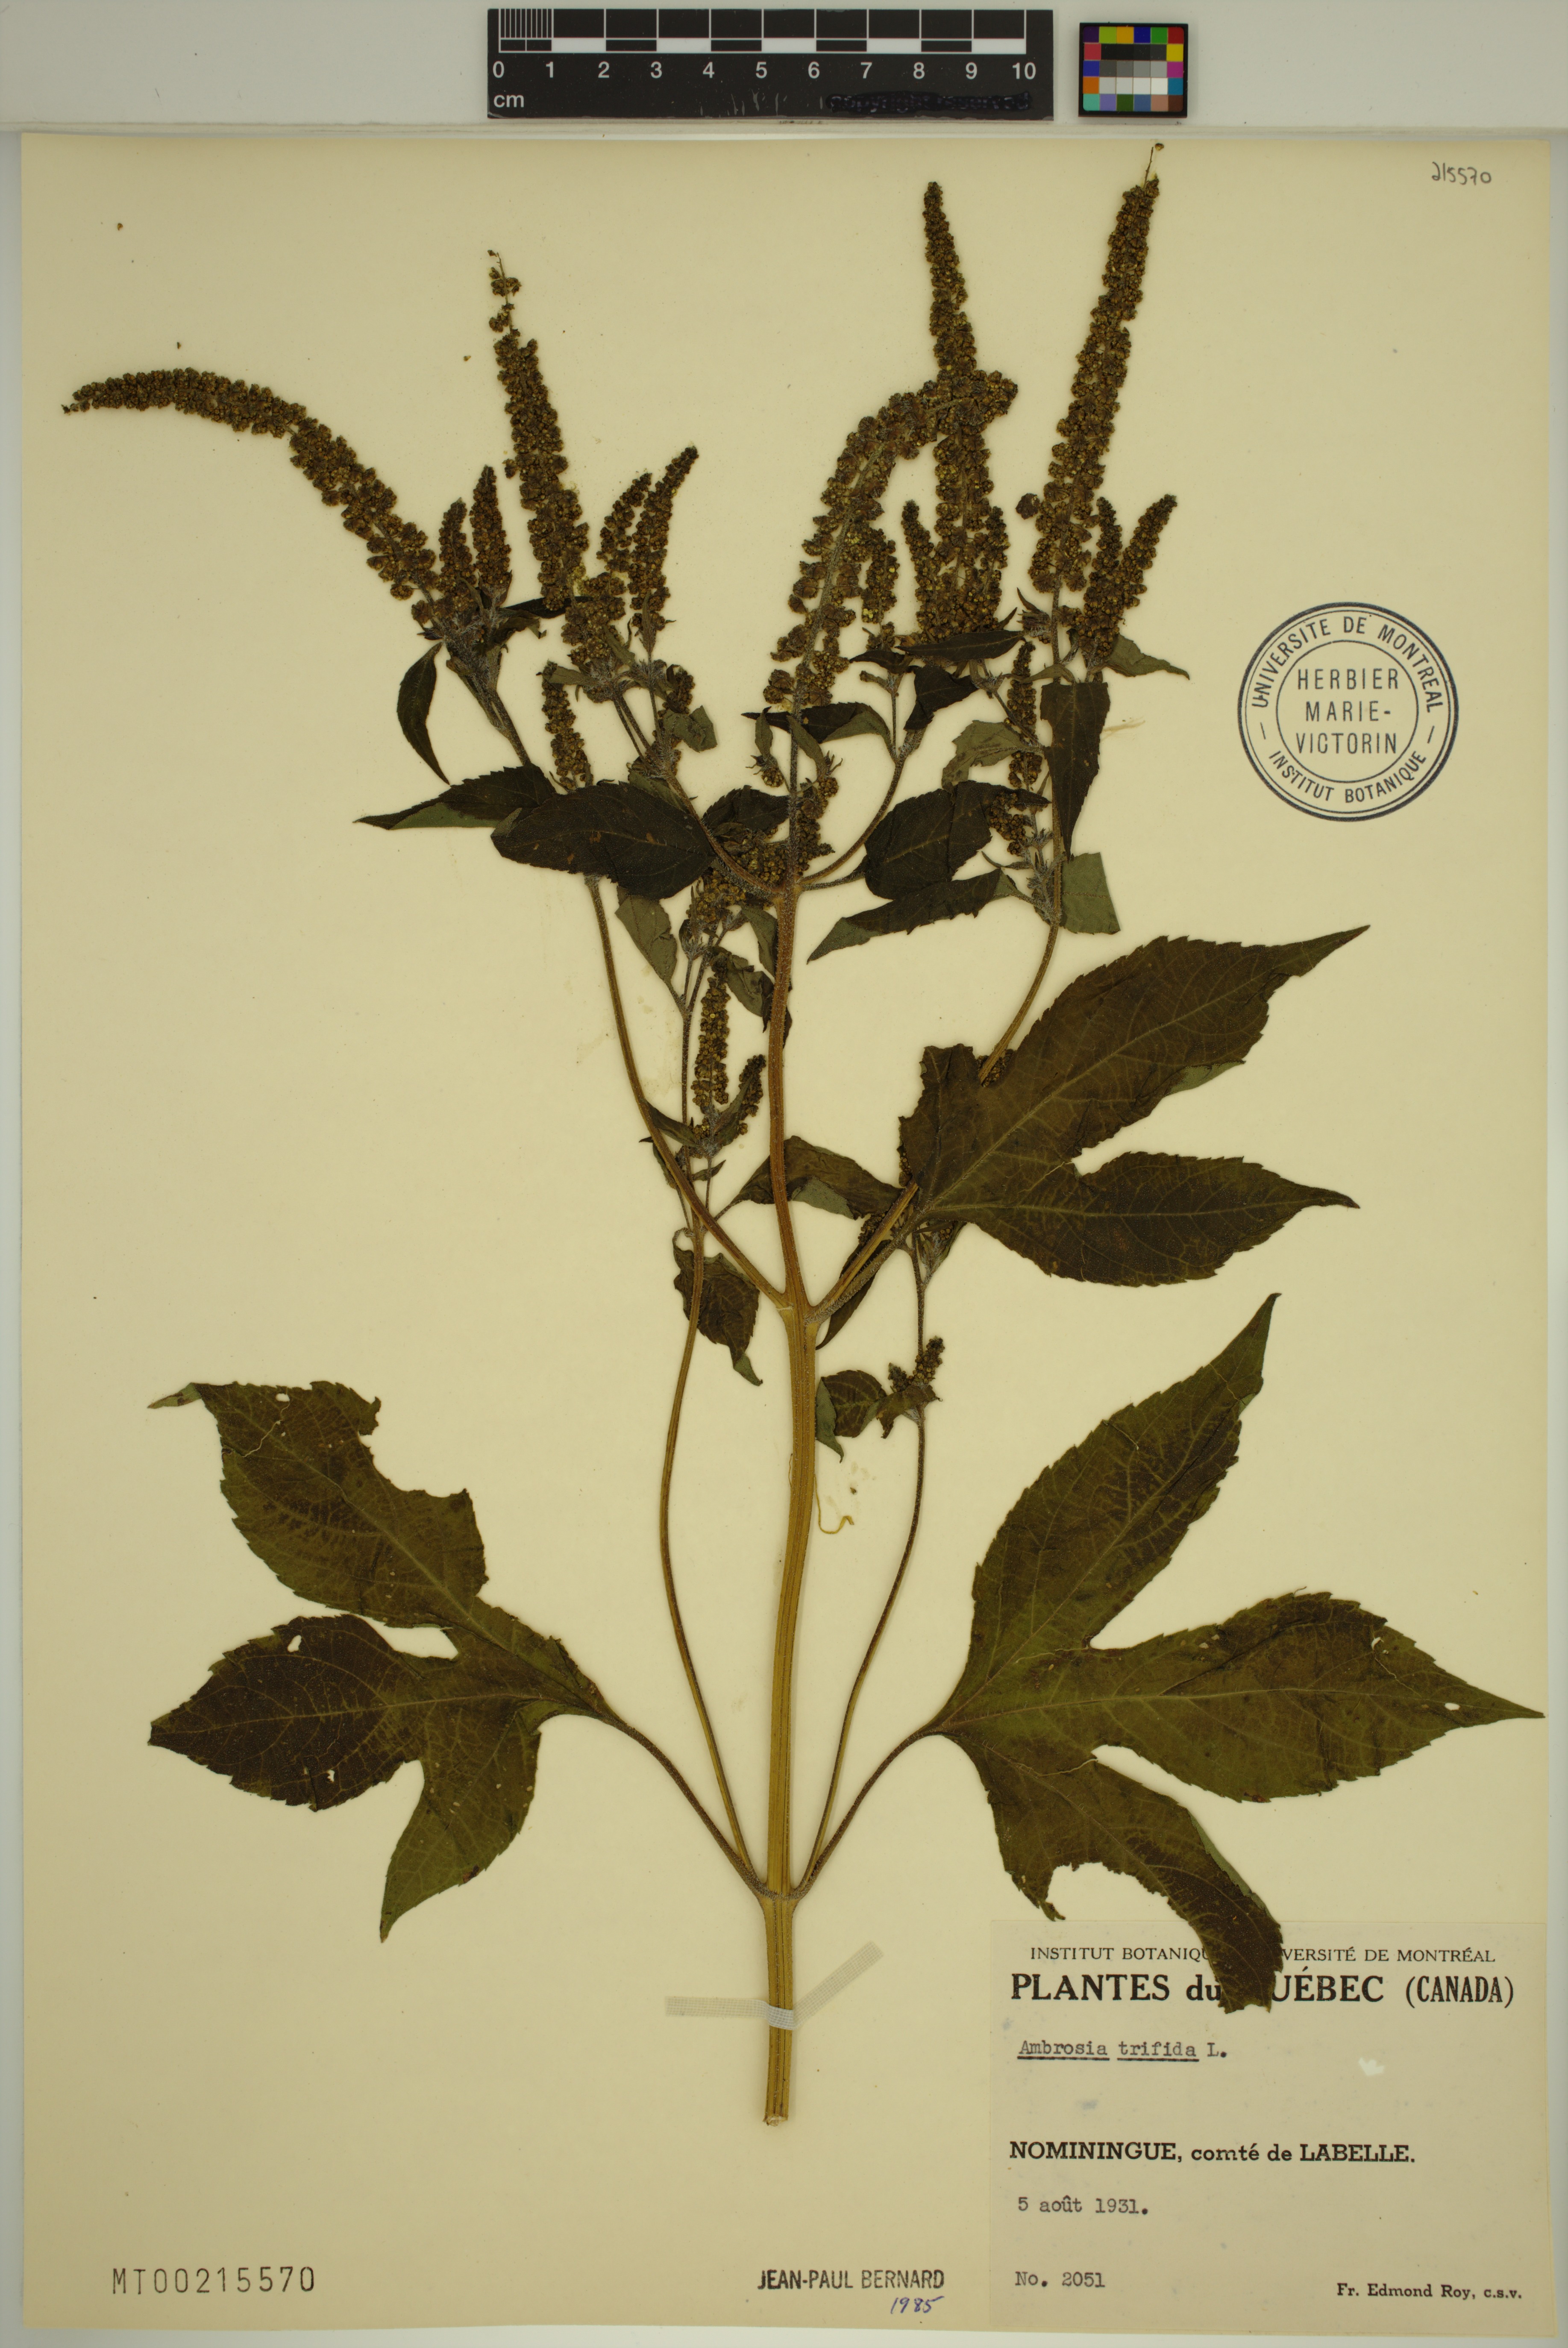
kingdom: Plantae
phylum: Tracheophyta
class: Magnoliopsida
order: Asterales
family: Asteraceae
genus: Ambrosia
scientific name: Ambrosia trifida
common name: Giant ragweed
